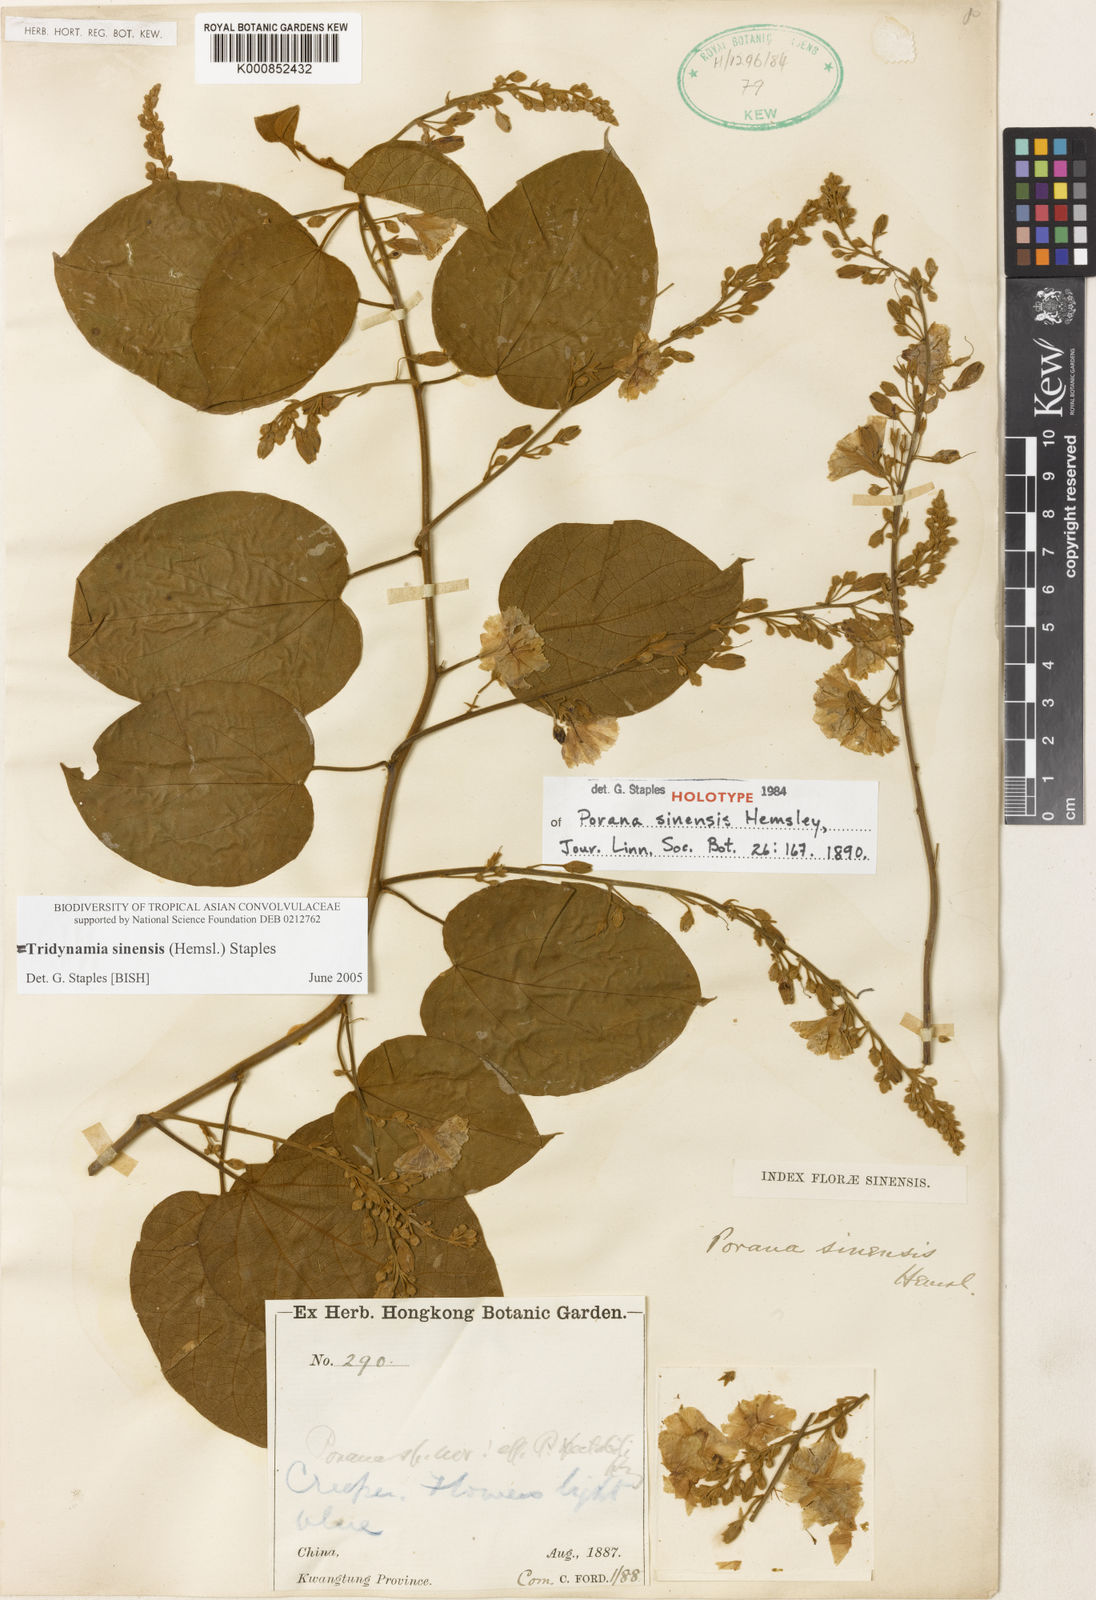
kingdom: Plantae
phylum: Tracheophyta
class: Magnoliopsida
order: Solanales
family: Convolvulaceae
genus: Tridynamia
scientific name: Tridynamia sinensis
